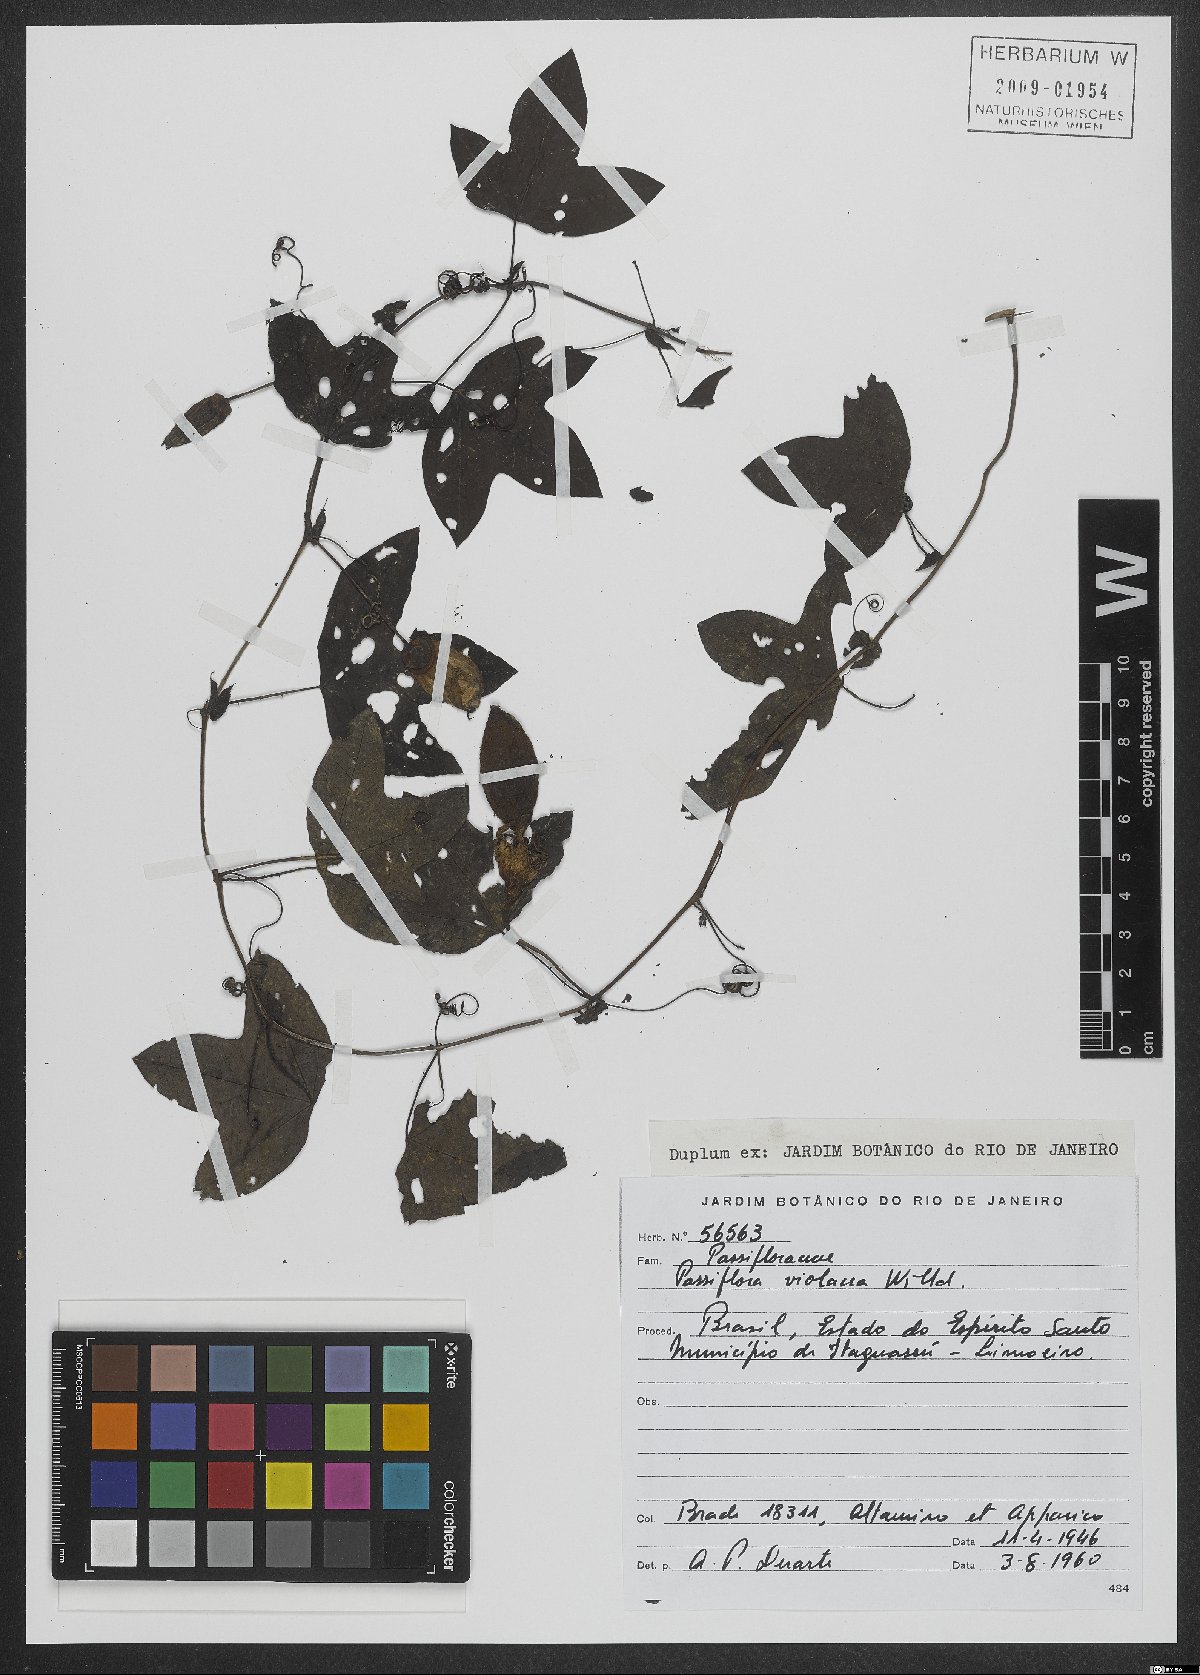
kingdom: Plantae
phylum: Tracheophyta
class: Magnoliopsida
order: Malpighiales
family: Passifloraceae
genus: Passiflora
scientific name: Passiflora amethystina
